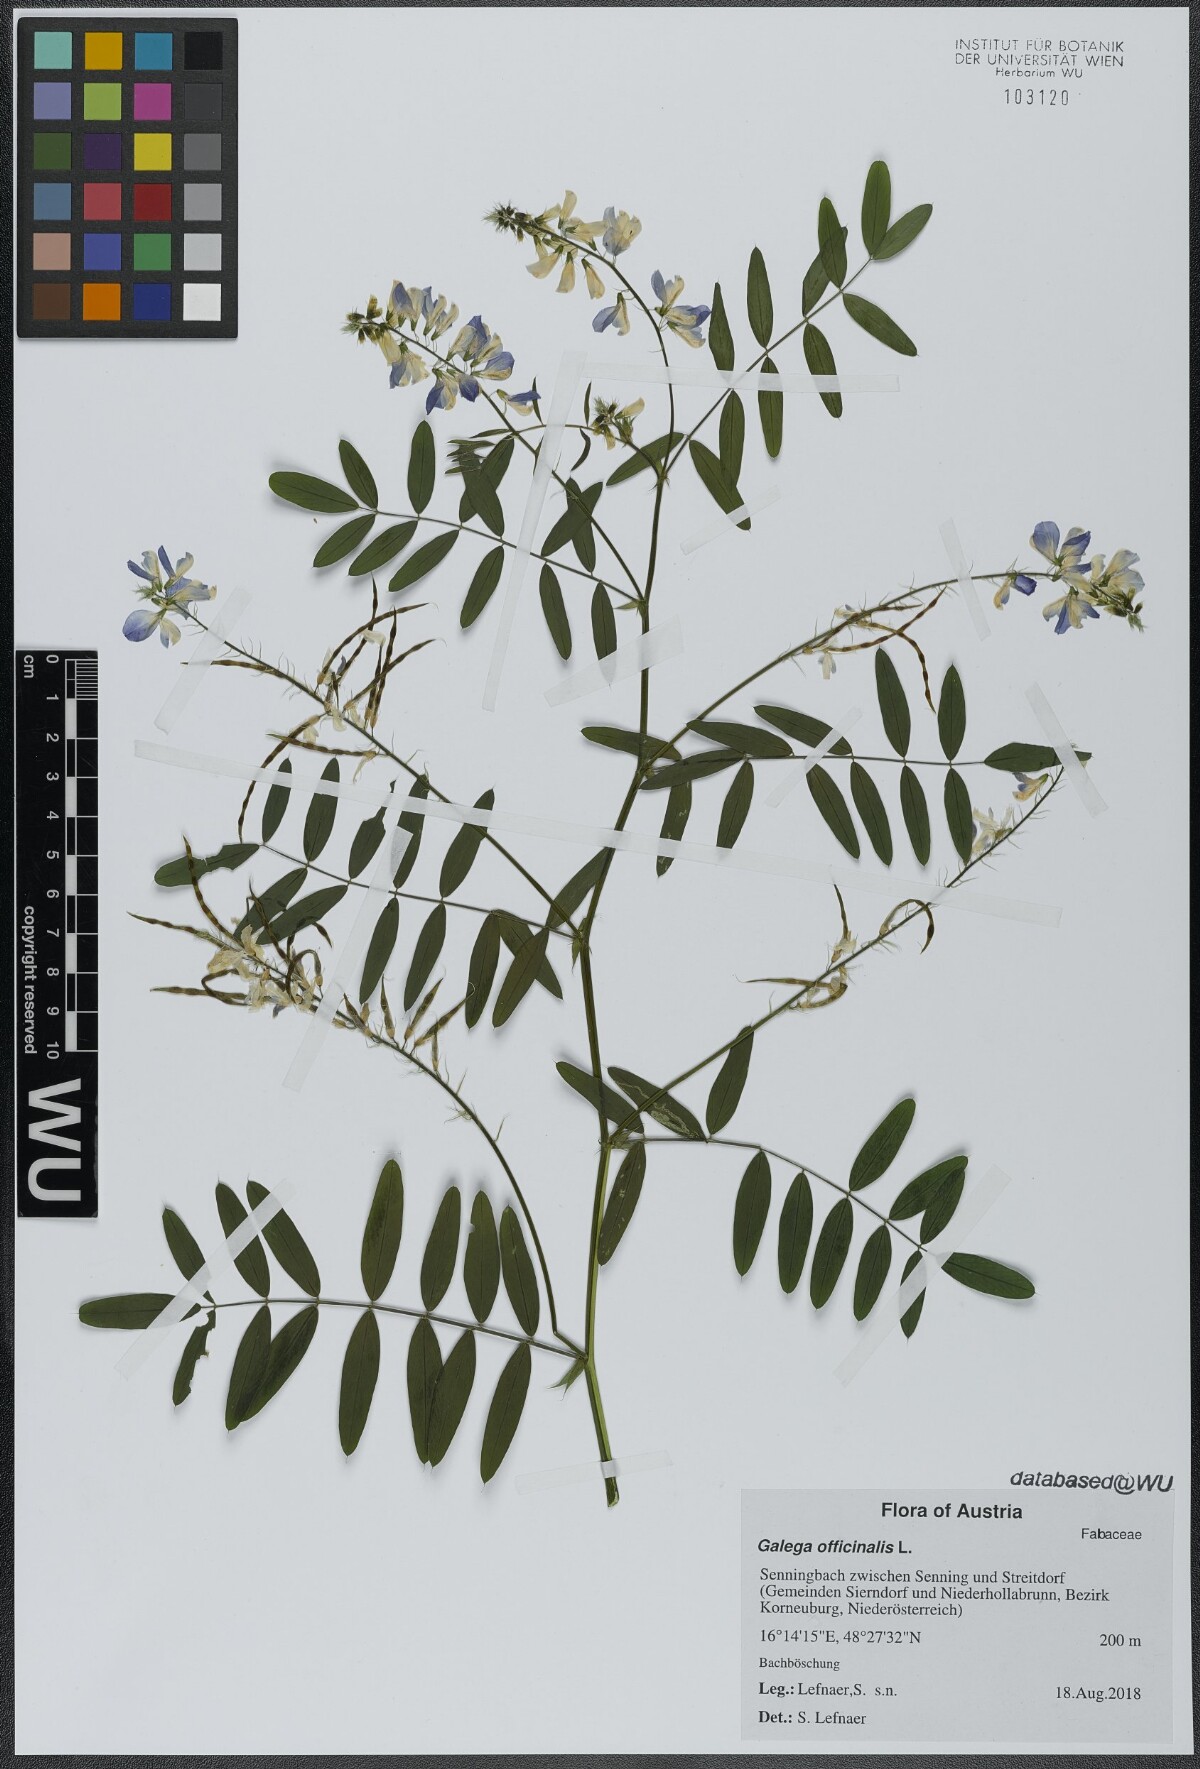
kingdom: Plantae
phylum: Tracheophyta
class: Magnoliopsida
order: Fabales
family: Fabaceae
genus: Galega
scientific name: Galega officinalis
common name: Goat's-rue
